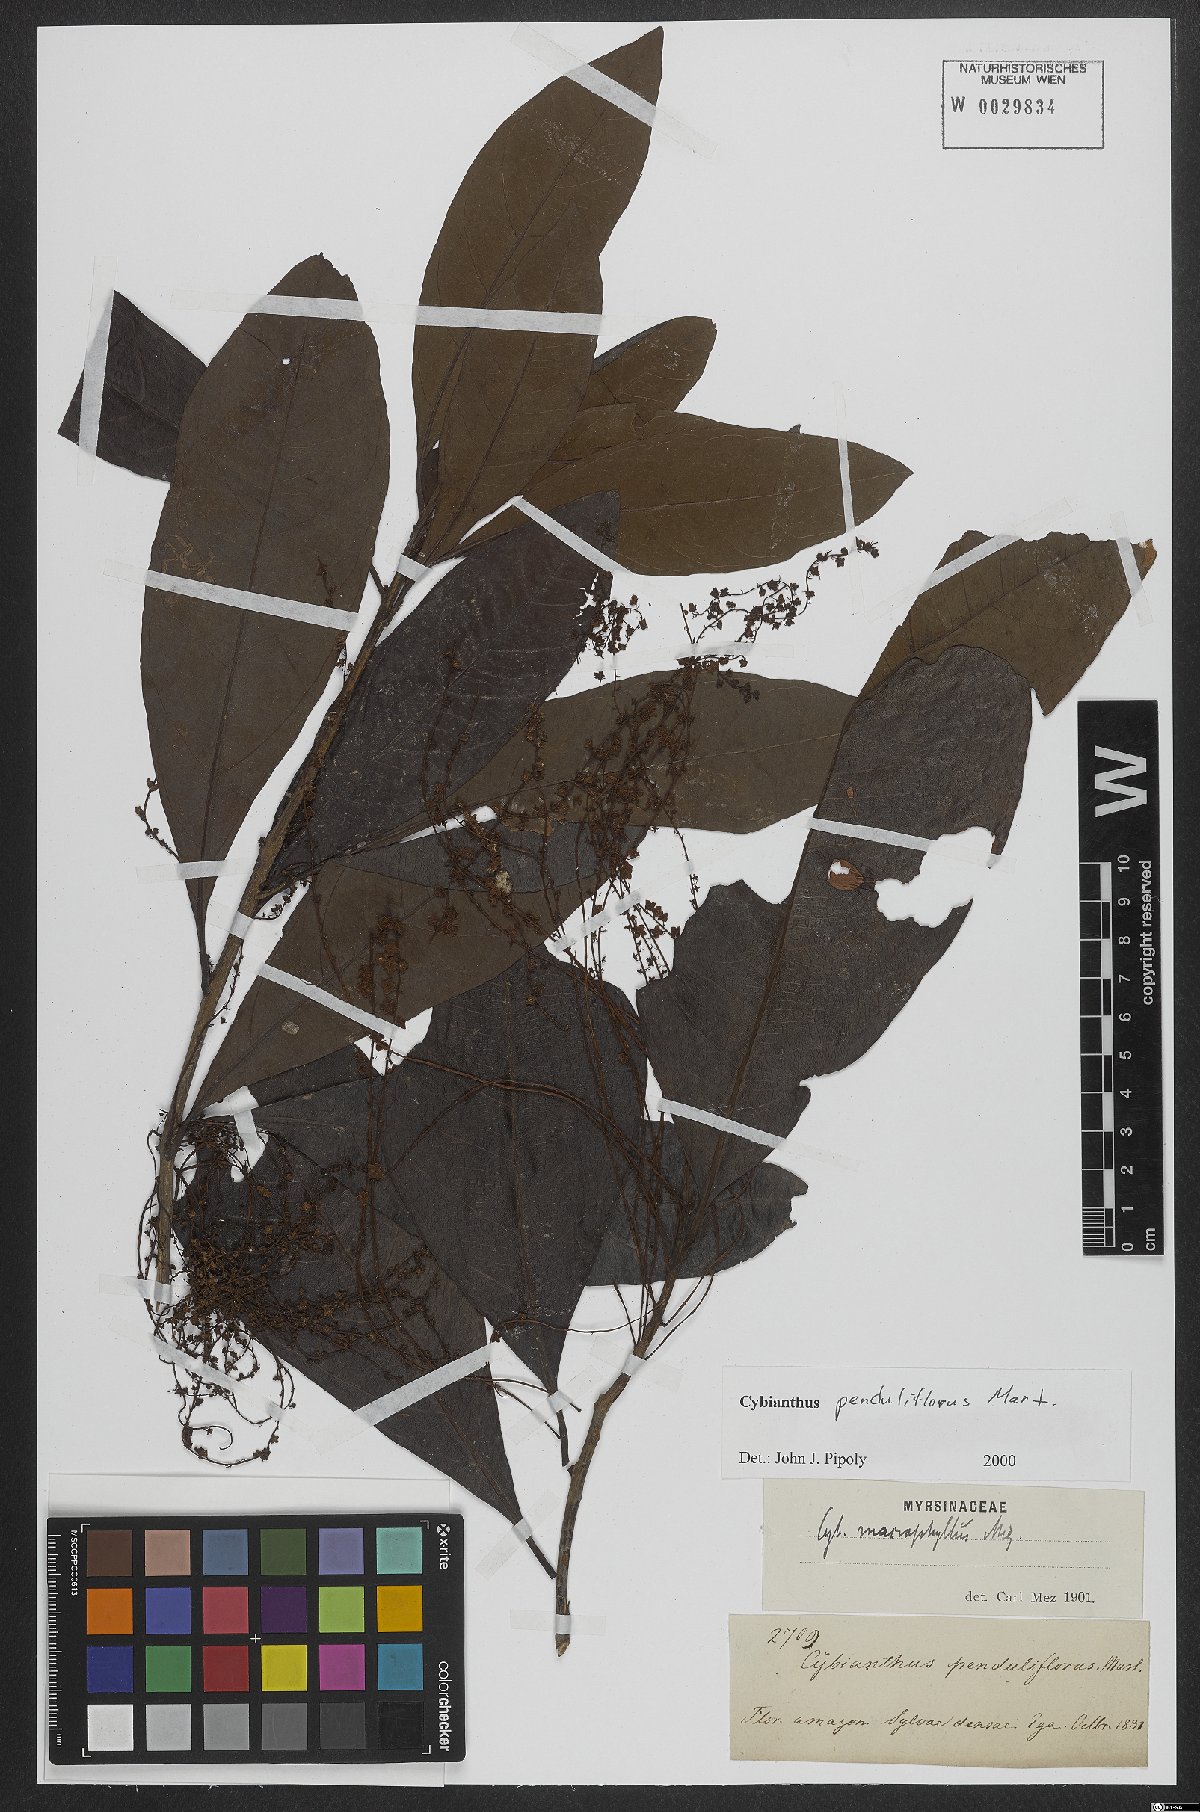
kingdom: Plantae
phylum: Tracheophyta
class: Magnoliopsida
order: Ericales
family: Primulaceae
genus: Cybianthus
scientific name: Cybianthus penduliflorus
